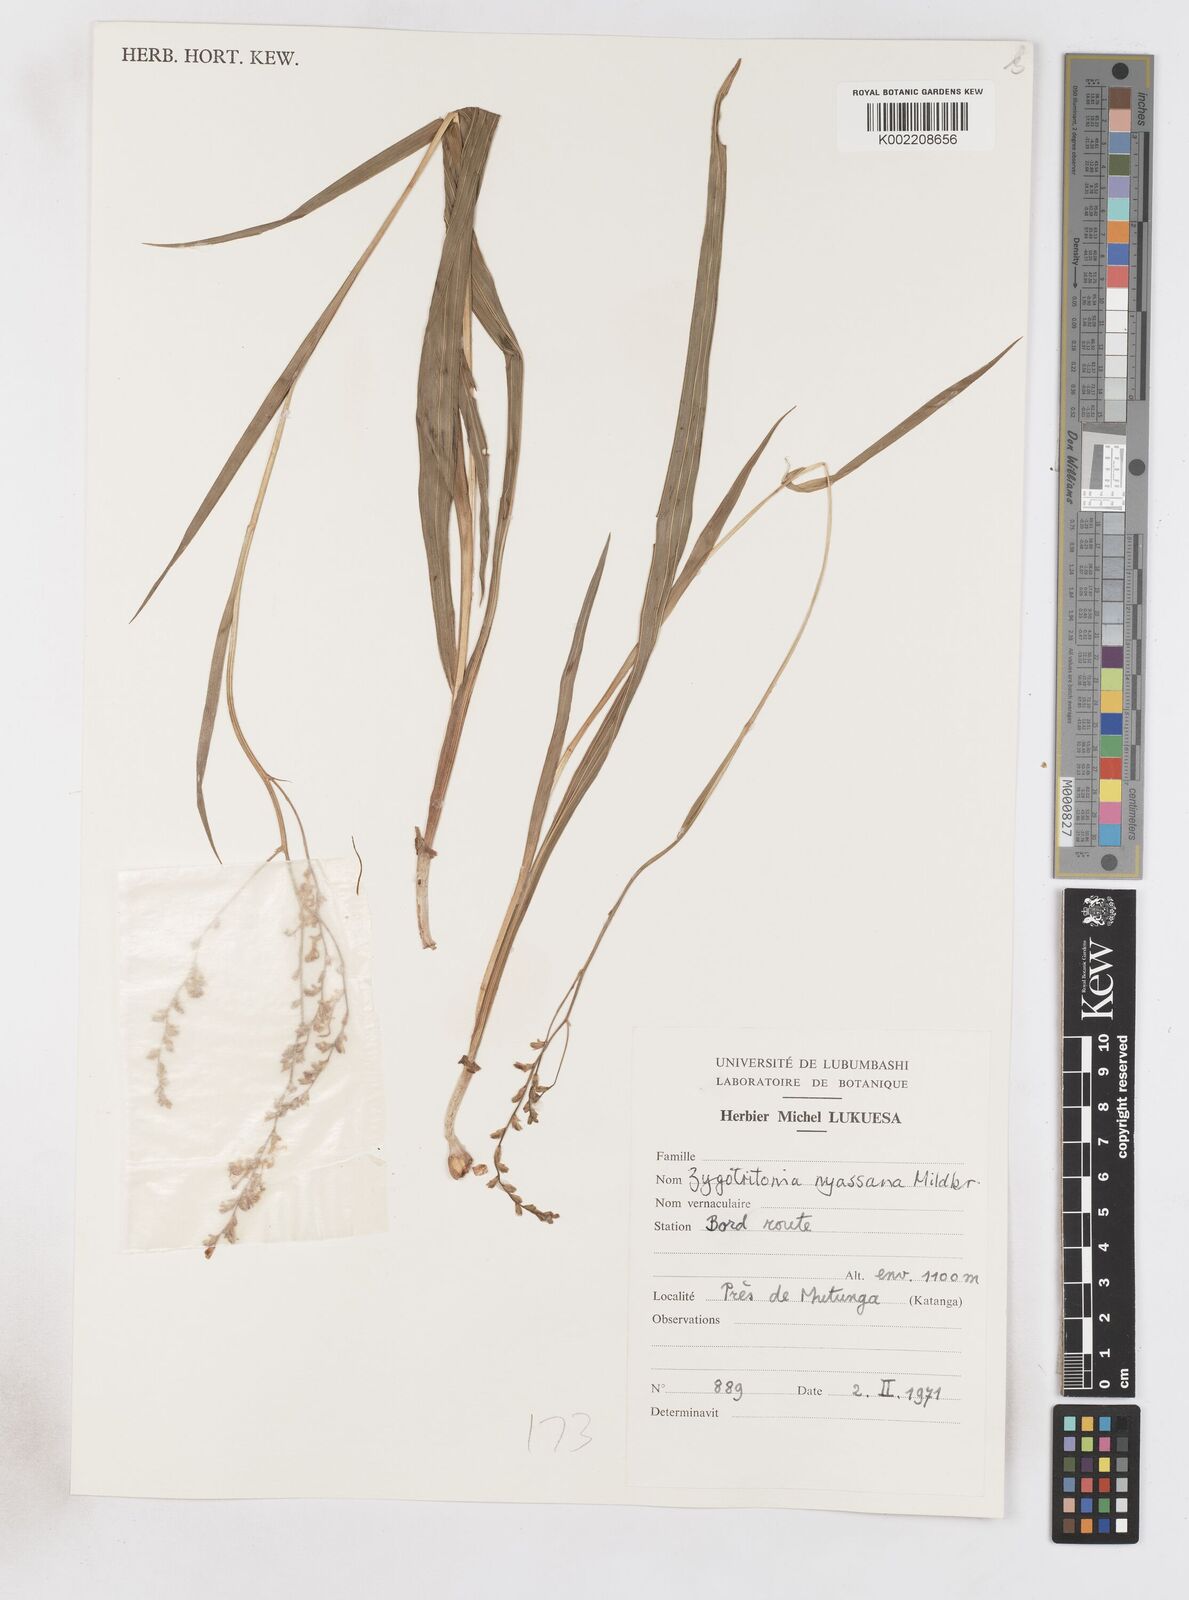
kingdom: Plantae
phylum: Tracheophyta
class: Liliopsida
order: Asparagales
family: Iridaceae
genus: Zygotritonia
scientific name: Zygotritonia nyassana
